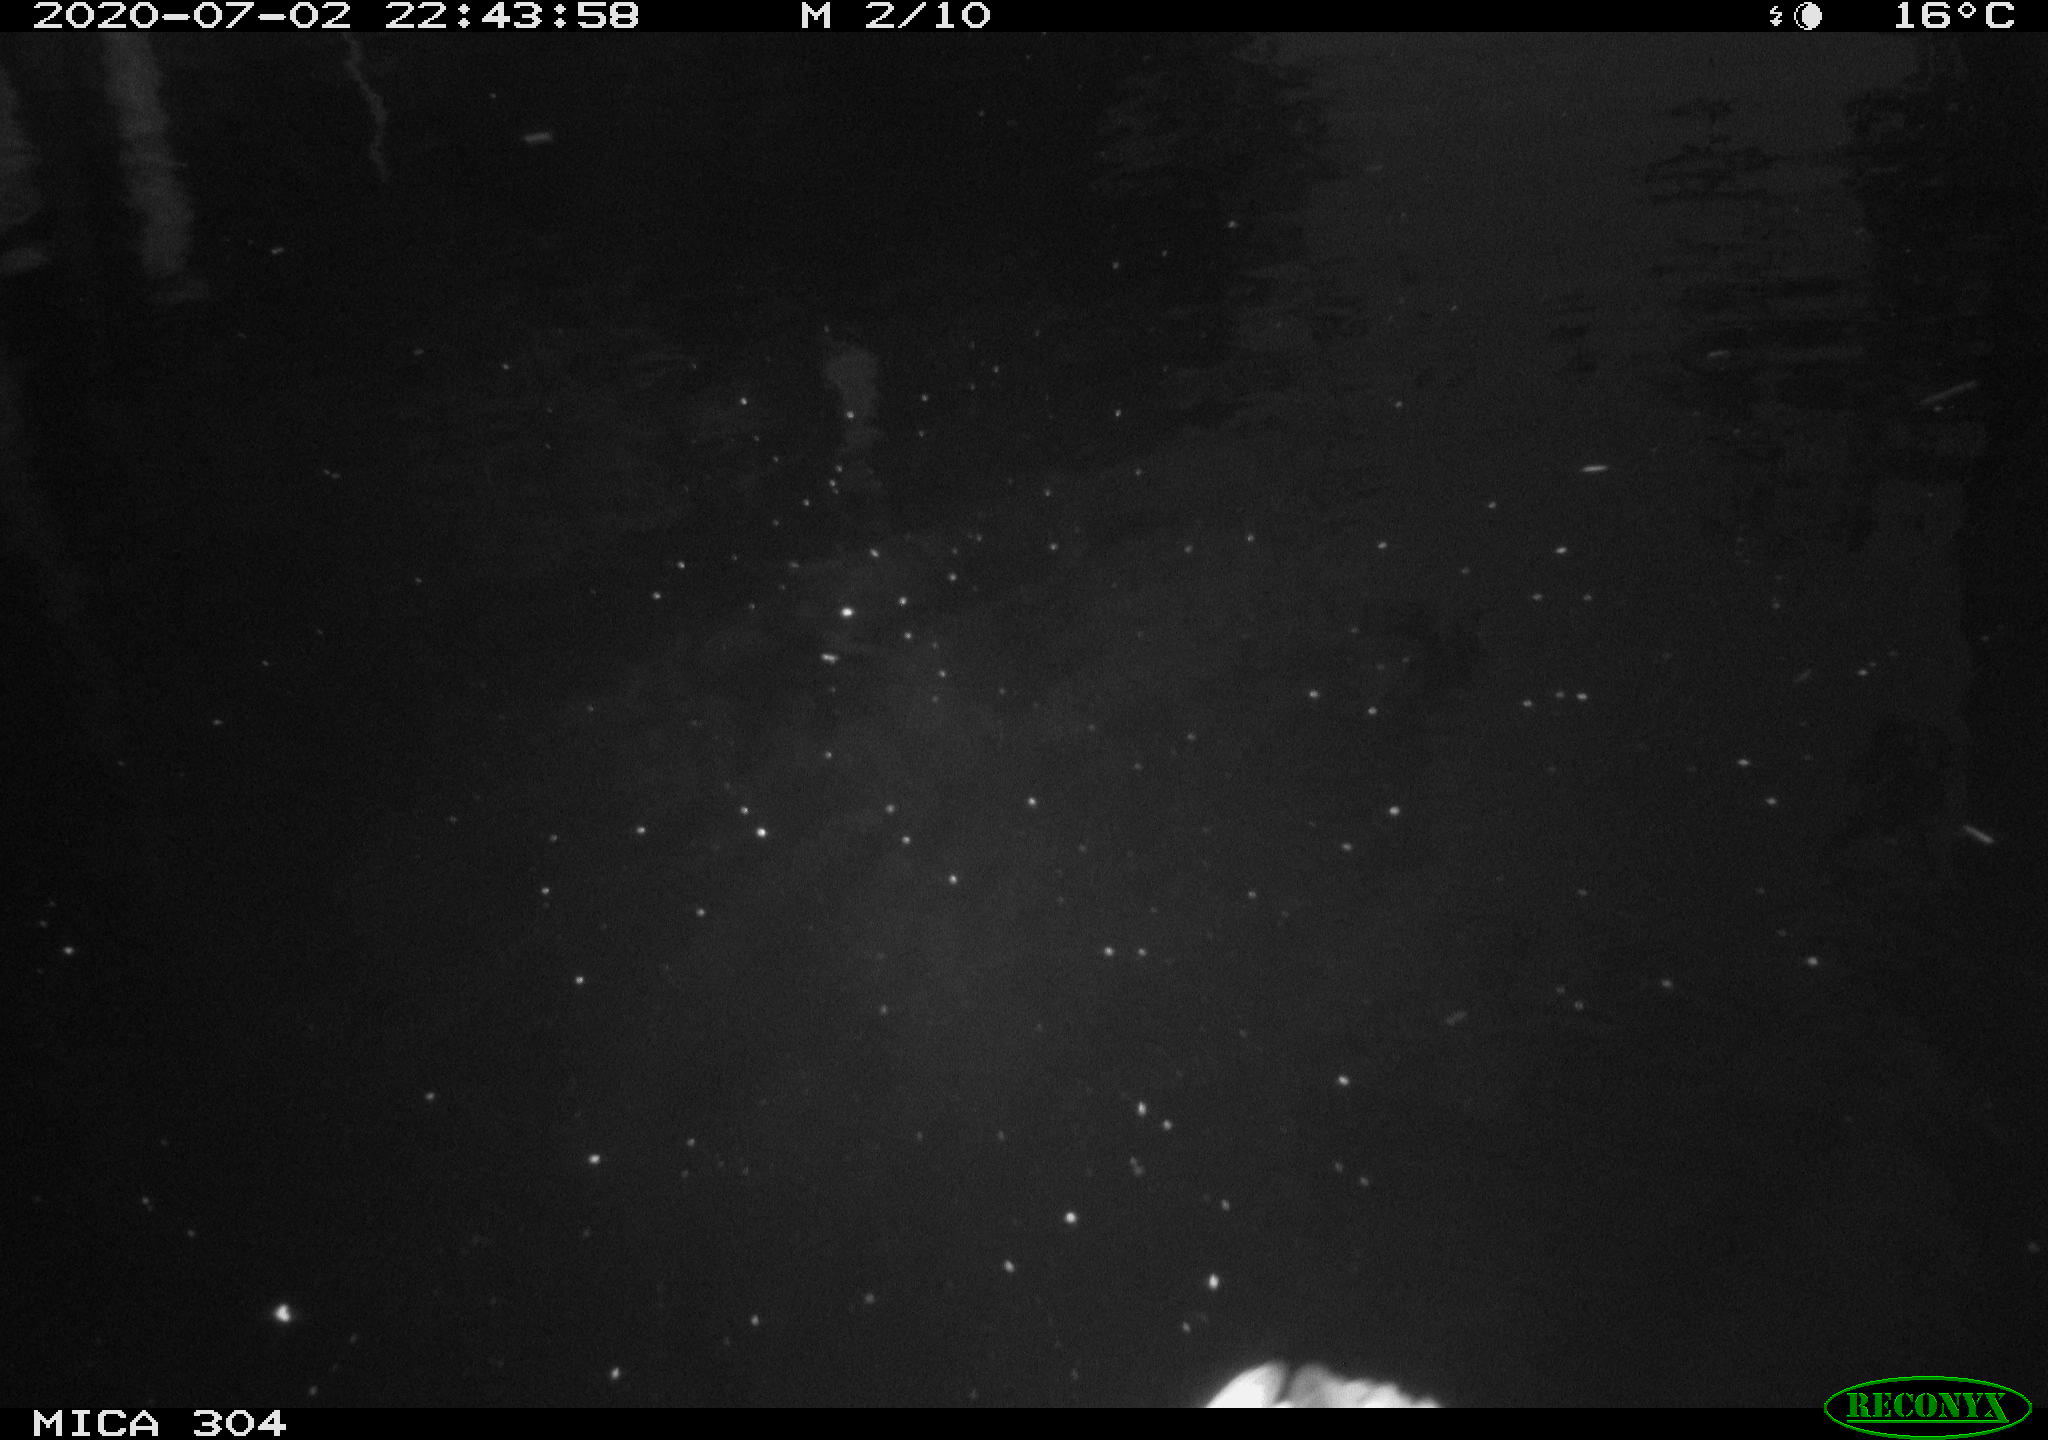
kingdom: Animalia
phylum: Chordata
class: Aves
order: Anseriformes
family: Anatidae
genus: Anas
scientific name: Anas platyrhynchos
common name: Mallard
